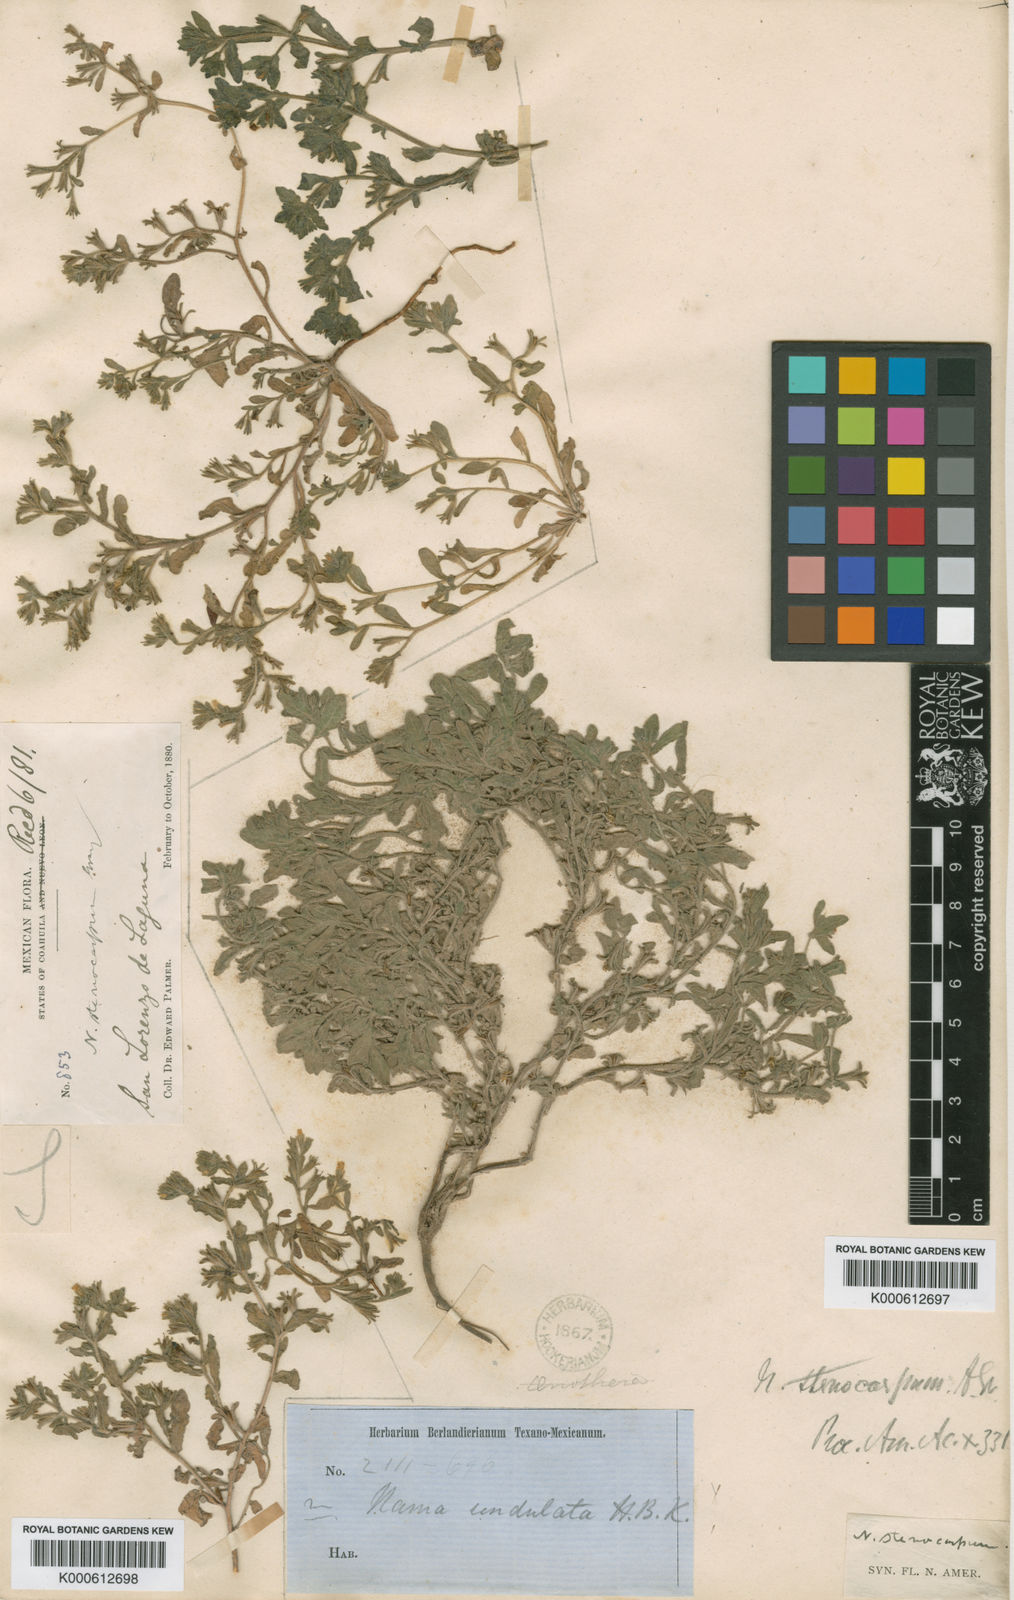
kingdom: Plantae
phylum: Tracheophyta
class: Magnoliopsida
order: Boraginales
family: Namaceae
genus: Nama
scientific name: Nama stenocarpa
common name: Mud fiddleleaf
